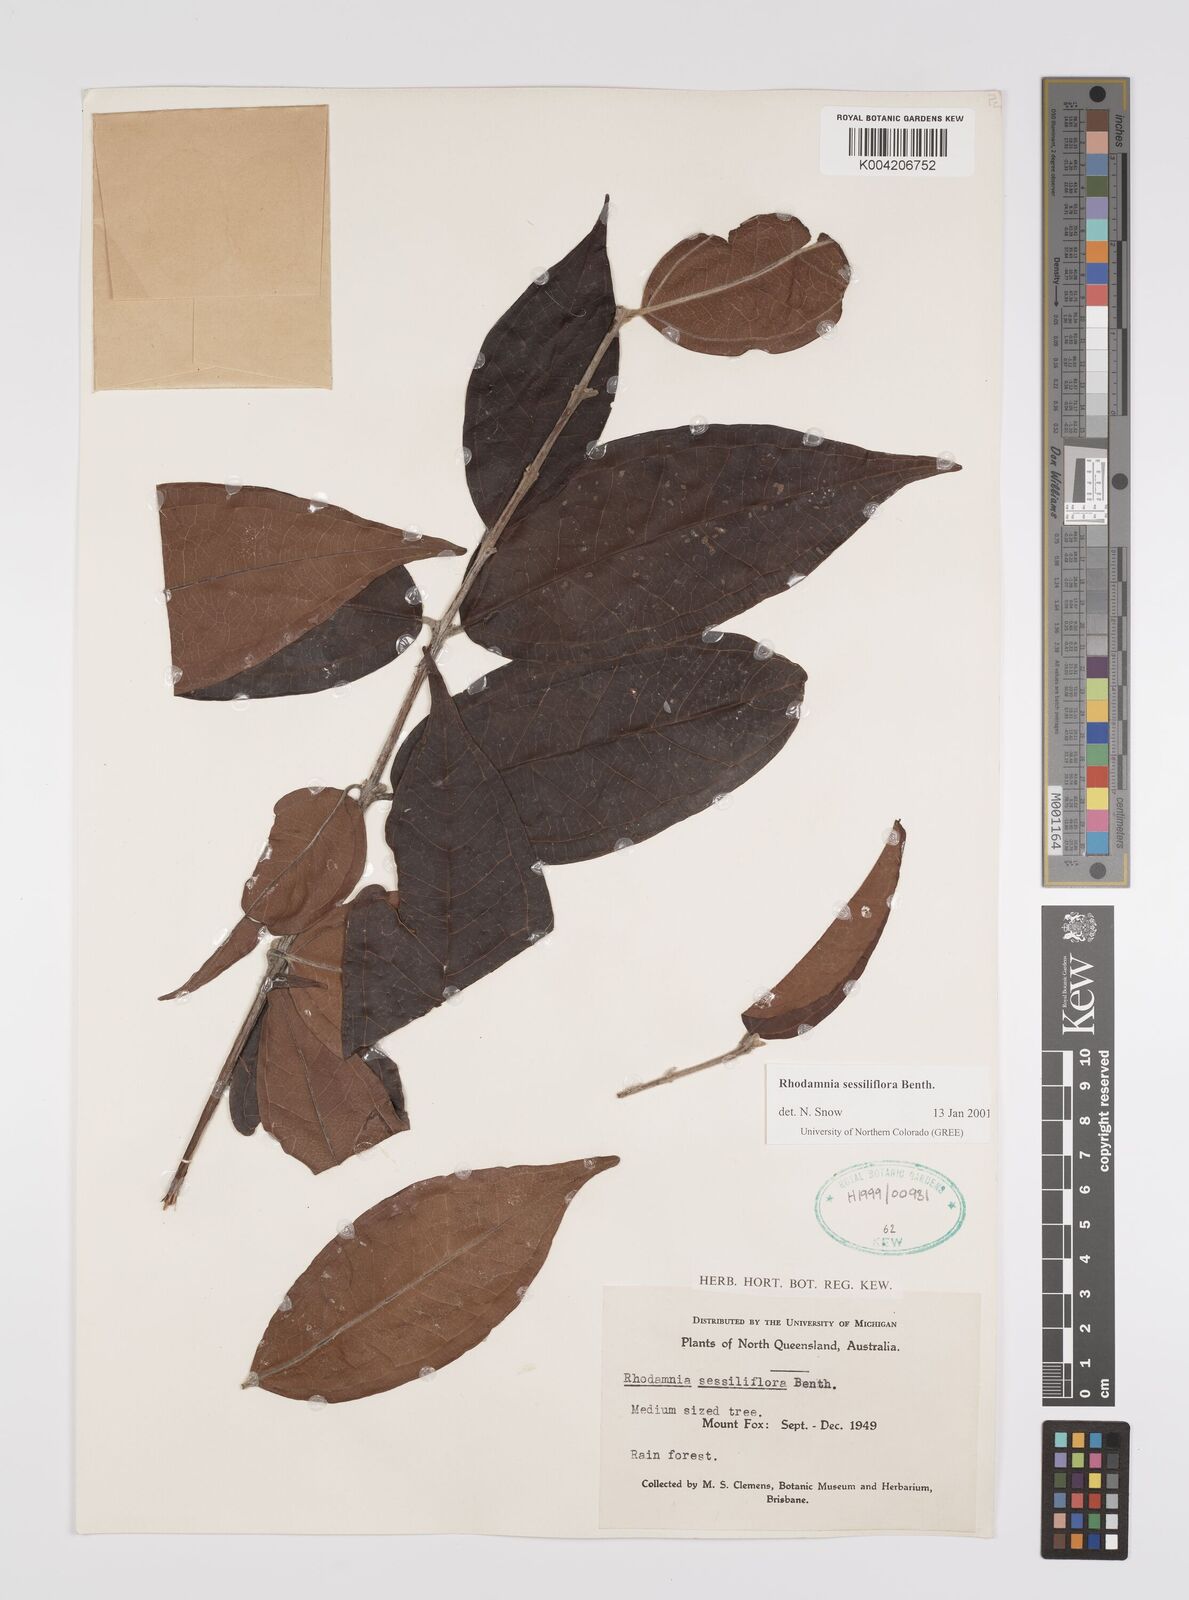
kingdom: Plantae
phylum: Tracheophyta
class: Magnoliopsida
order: Myrtales
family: Myrtaceae
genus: Rhodamnia
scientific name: Rhodamnia sessiliflora
